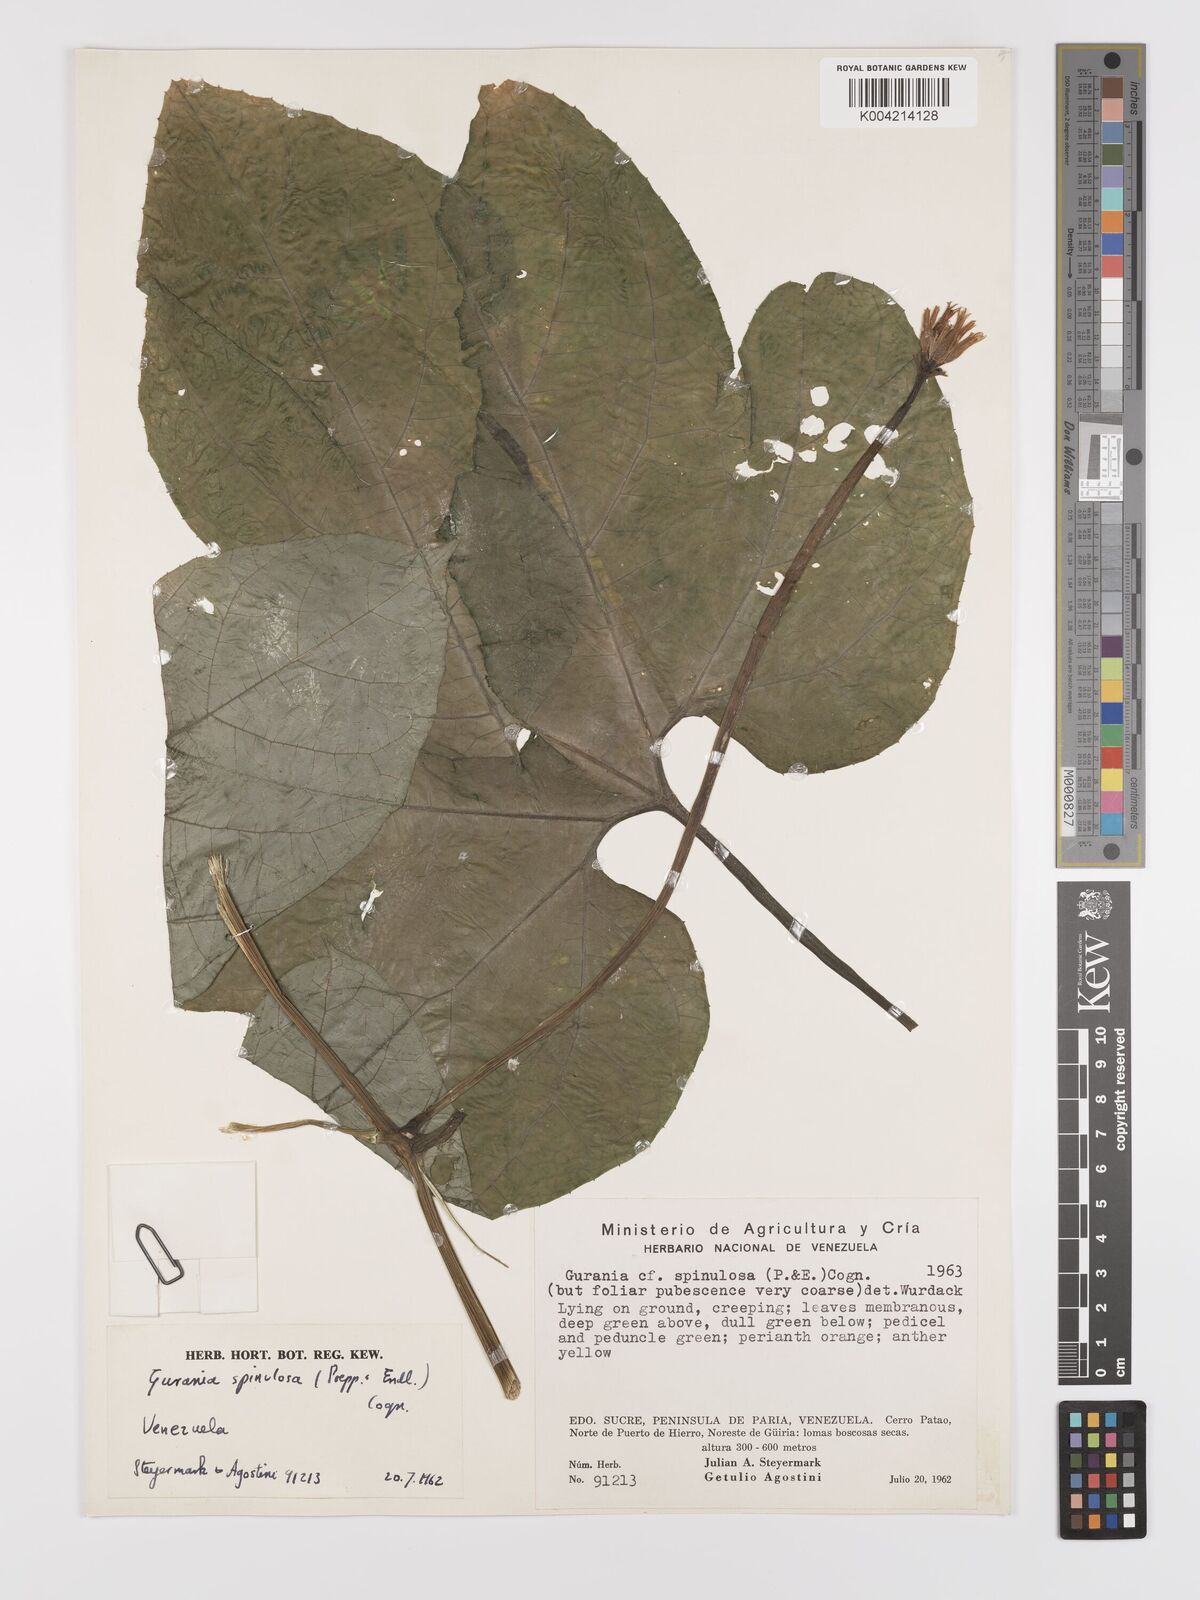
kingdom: Plantae
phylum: Tracheophyta
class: Magnoliopsida
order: Cucurbitales
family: Cucurbitaceae
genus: Gurania
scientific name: Gurania lobata
